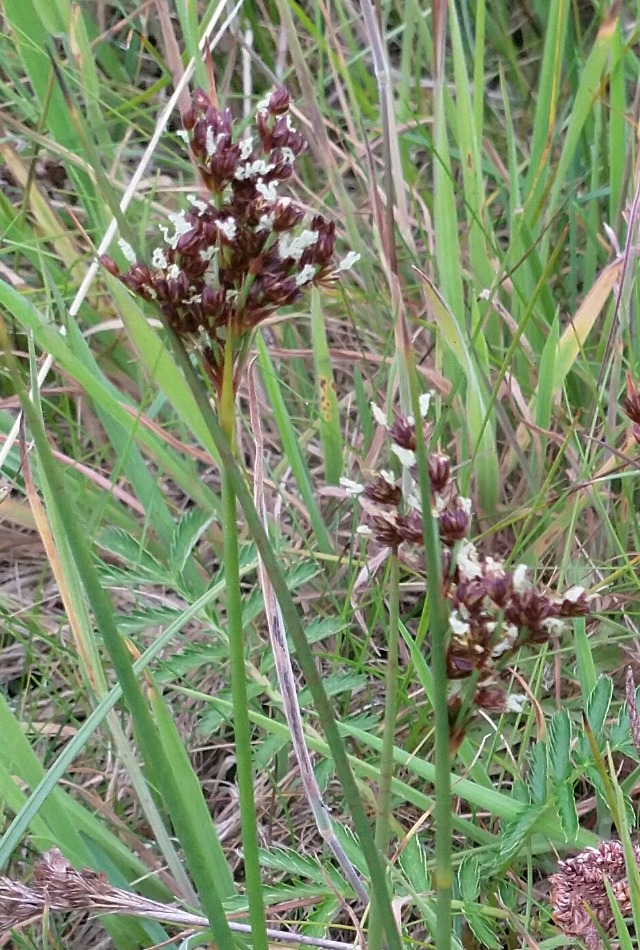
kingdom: Plantae
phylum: Tracheophyta
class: Liliopsida
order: Poales
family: Juncaceae
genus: Juncus
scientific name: Juncus anceps
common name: Sand-siv
